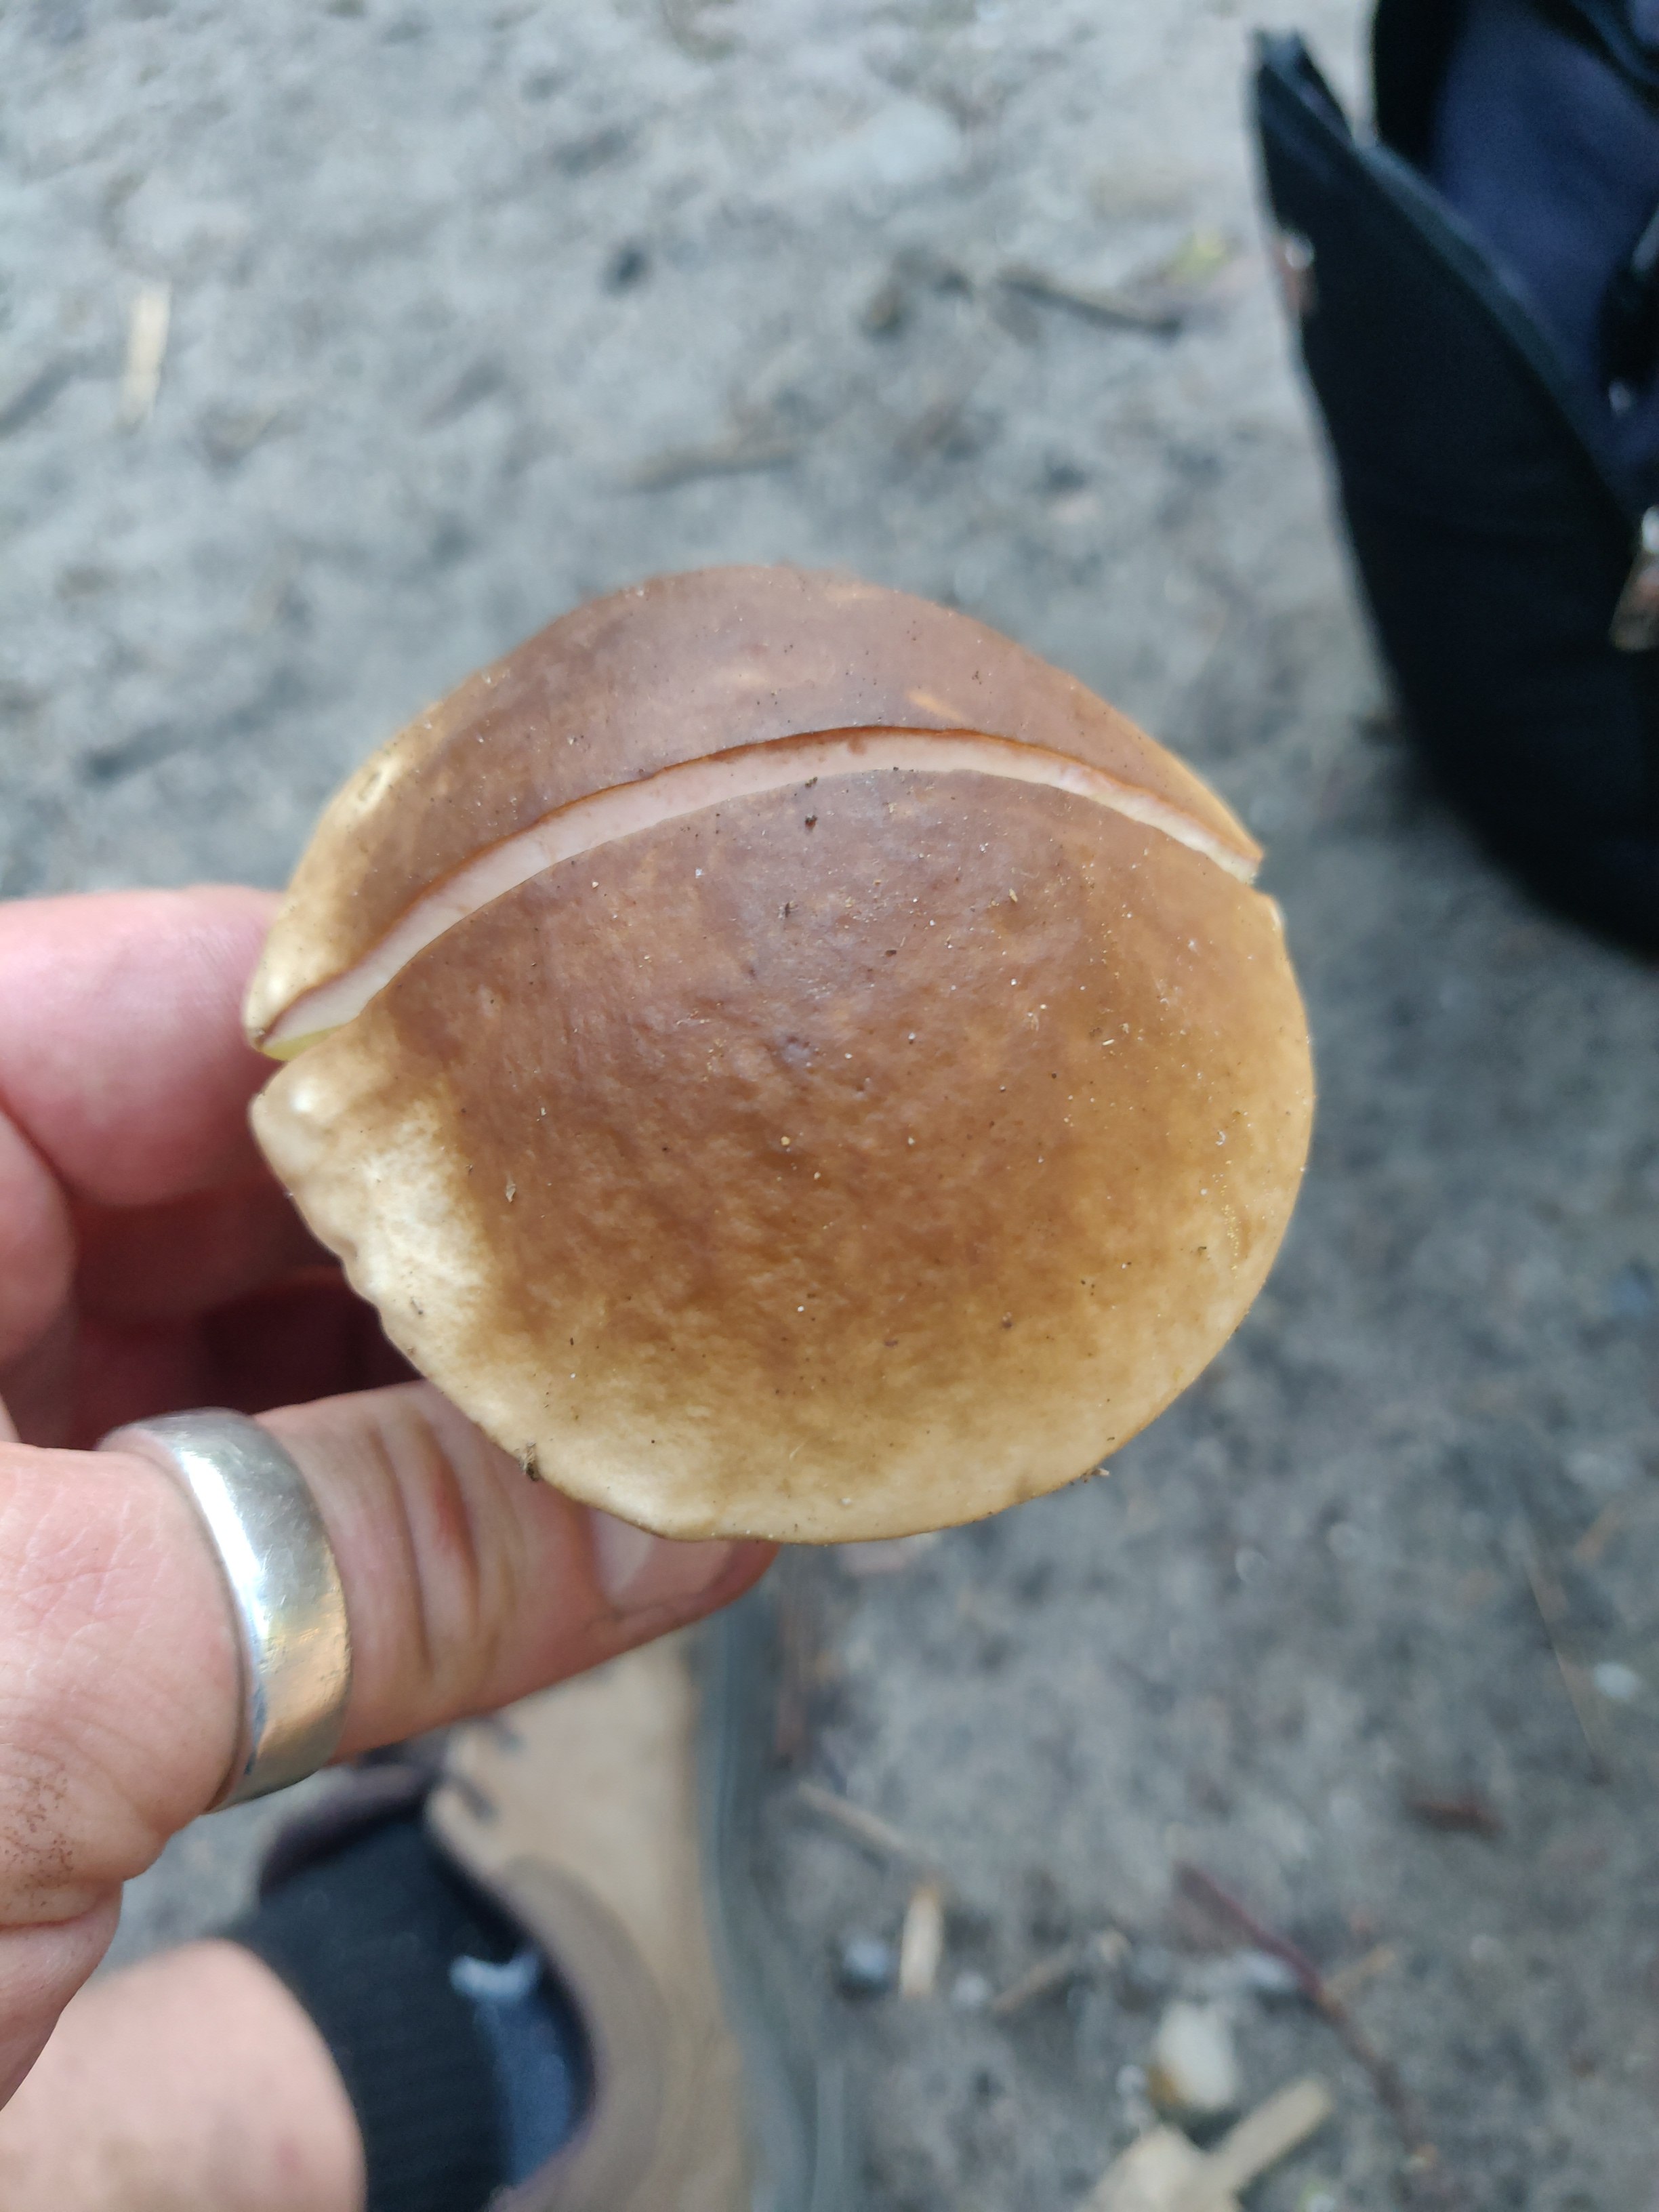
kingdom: Fungi
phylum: Basidiomycota
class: Agaricomycetes
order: Boletales
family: Boletaceae
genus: Boletus
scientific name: Boletus edulis
